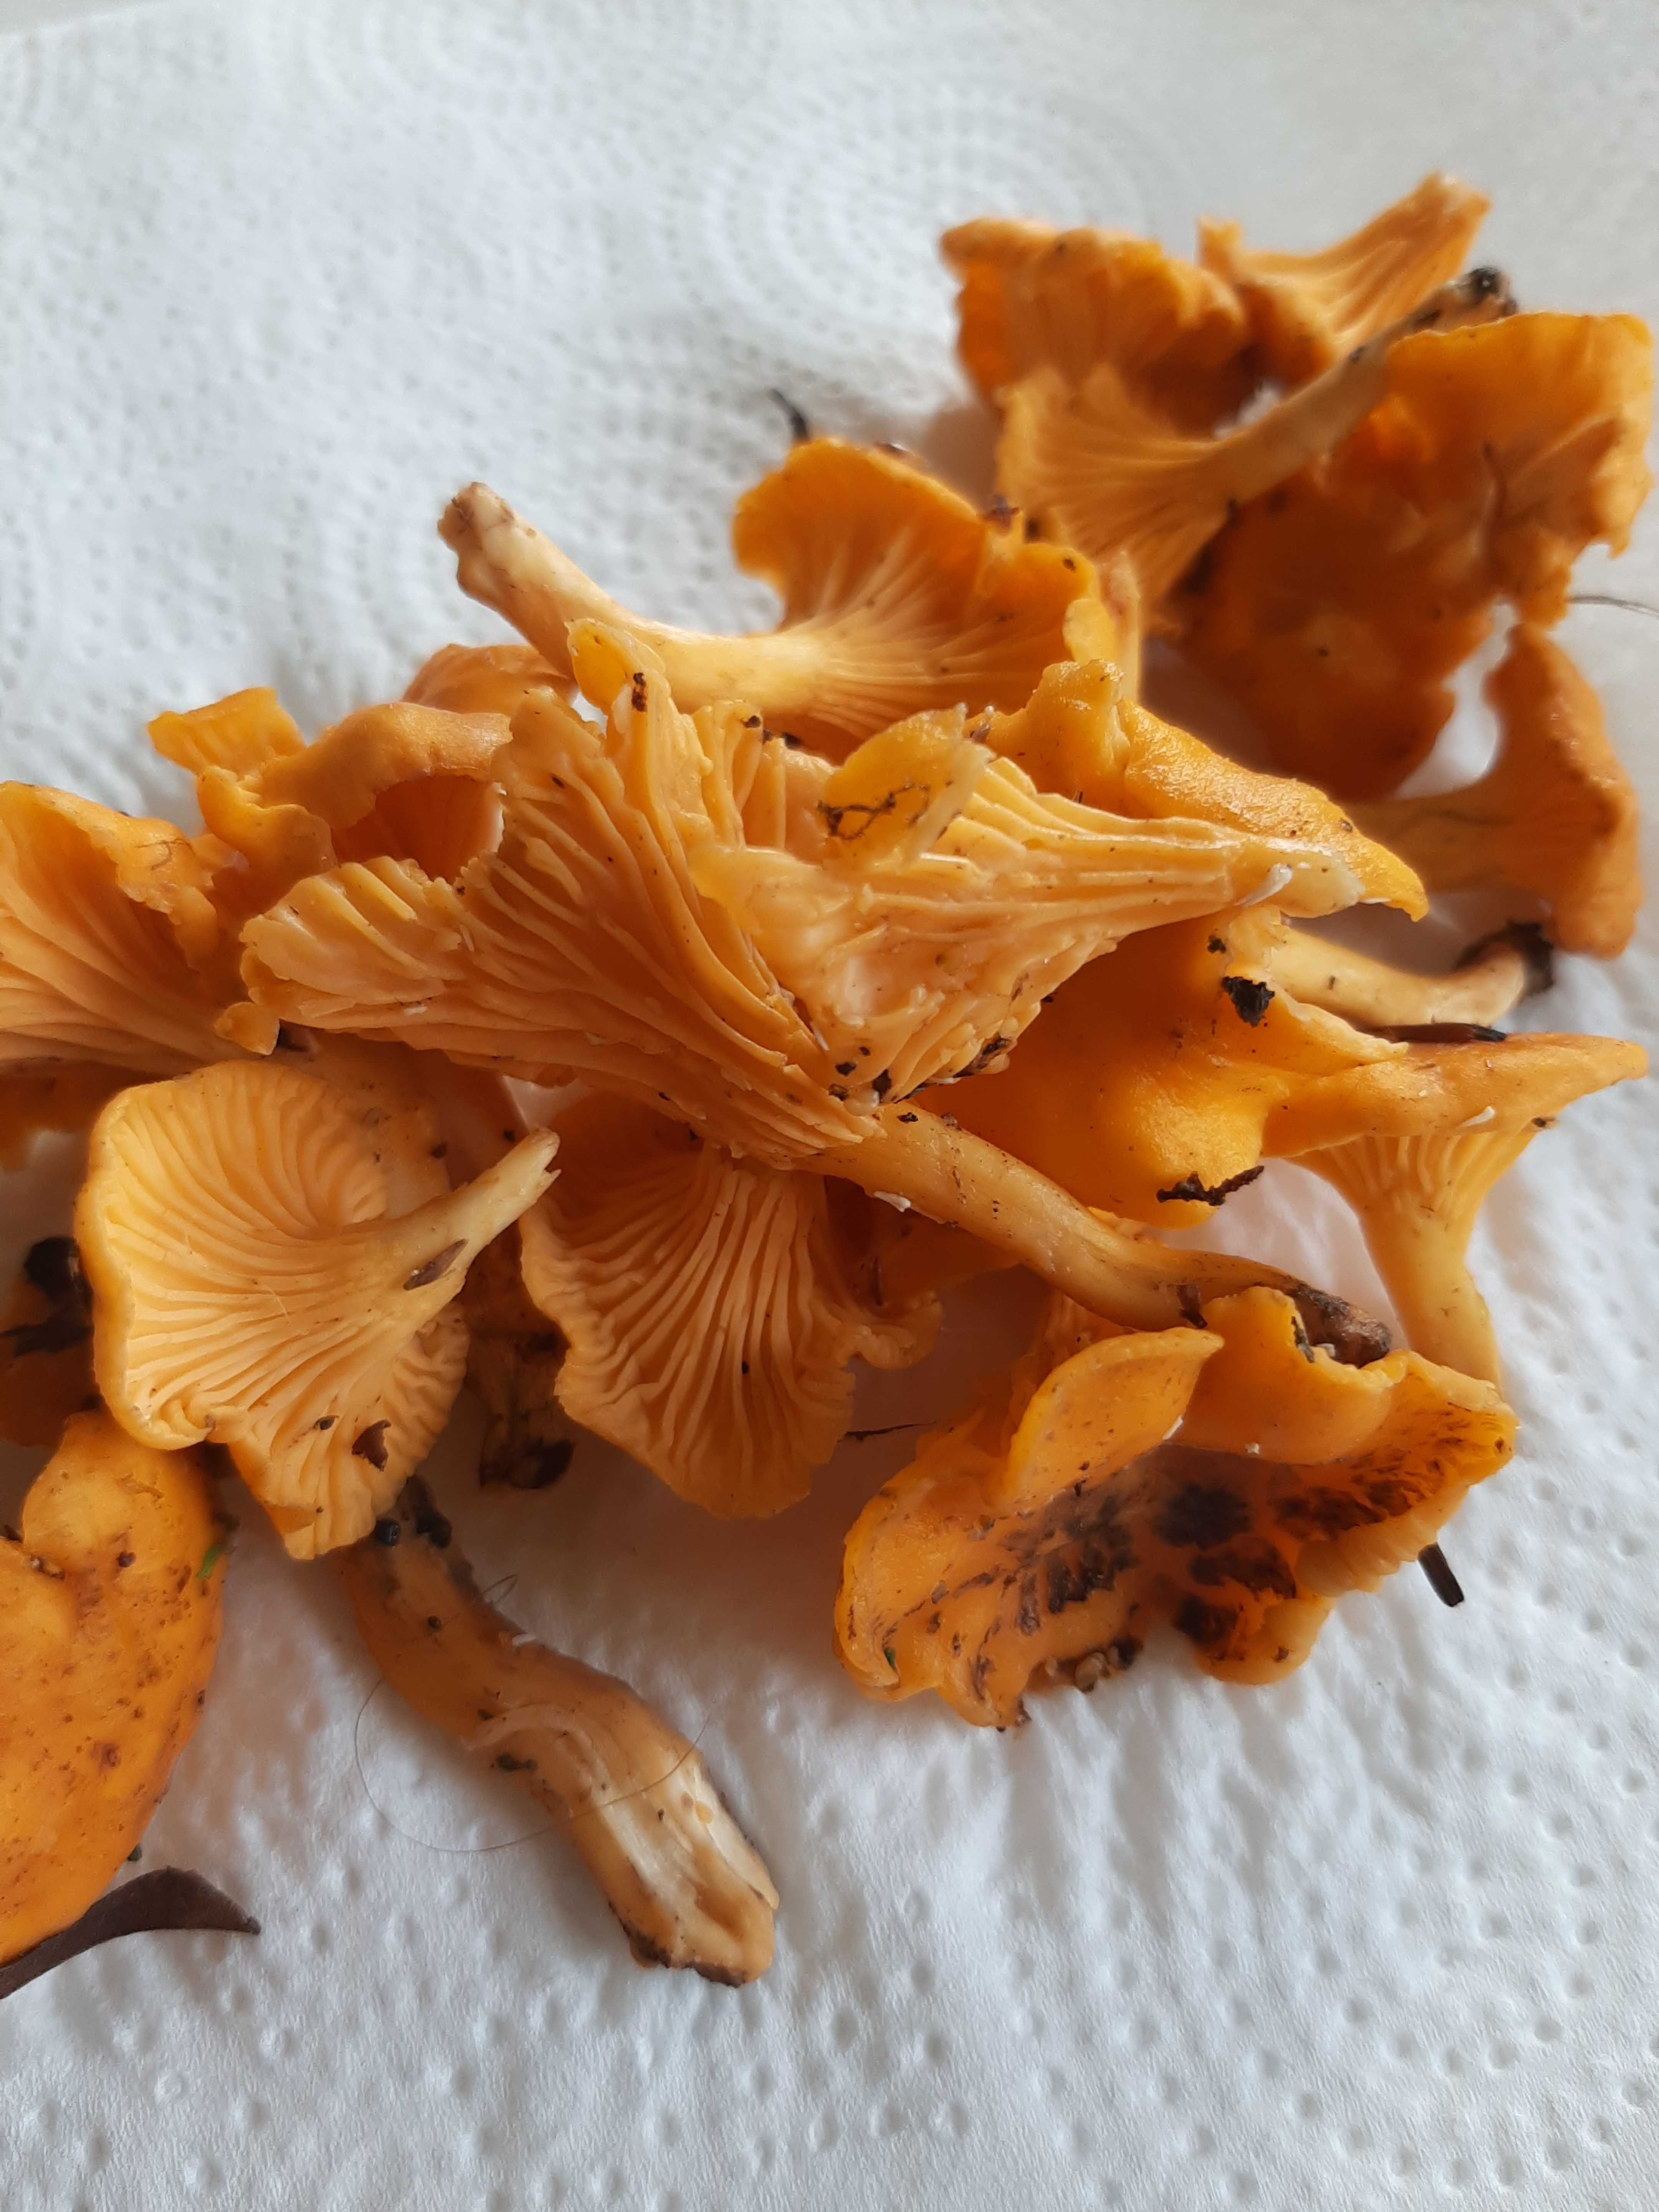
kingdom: Fungi
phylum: Basidiomycota
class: Agaricomycetes
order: Cantharellales
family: Hydnaceae
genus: Cantharellus
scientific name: Cantharellus cibarius
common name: almindelig kantarel
